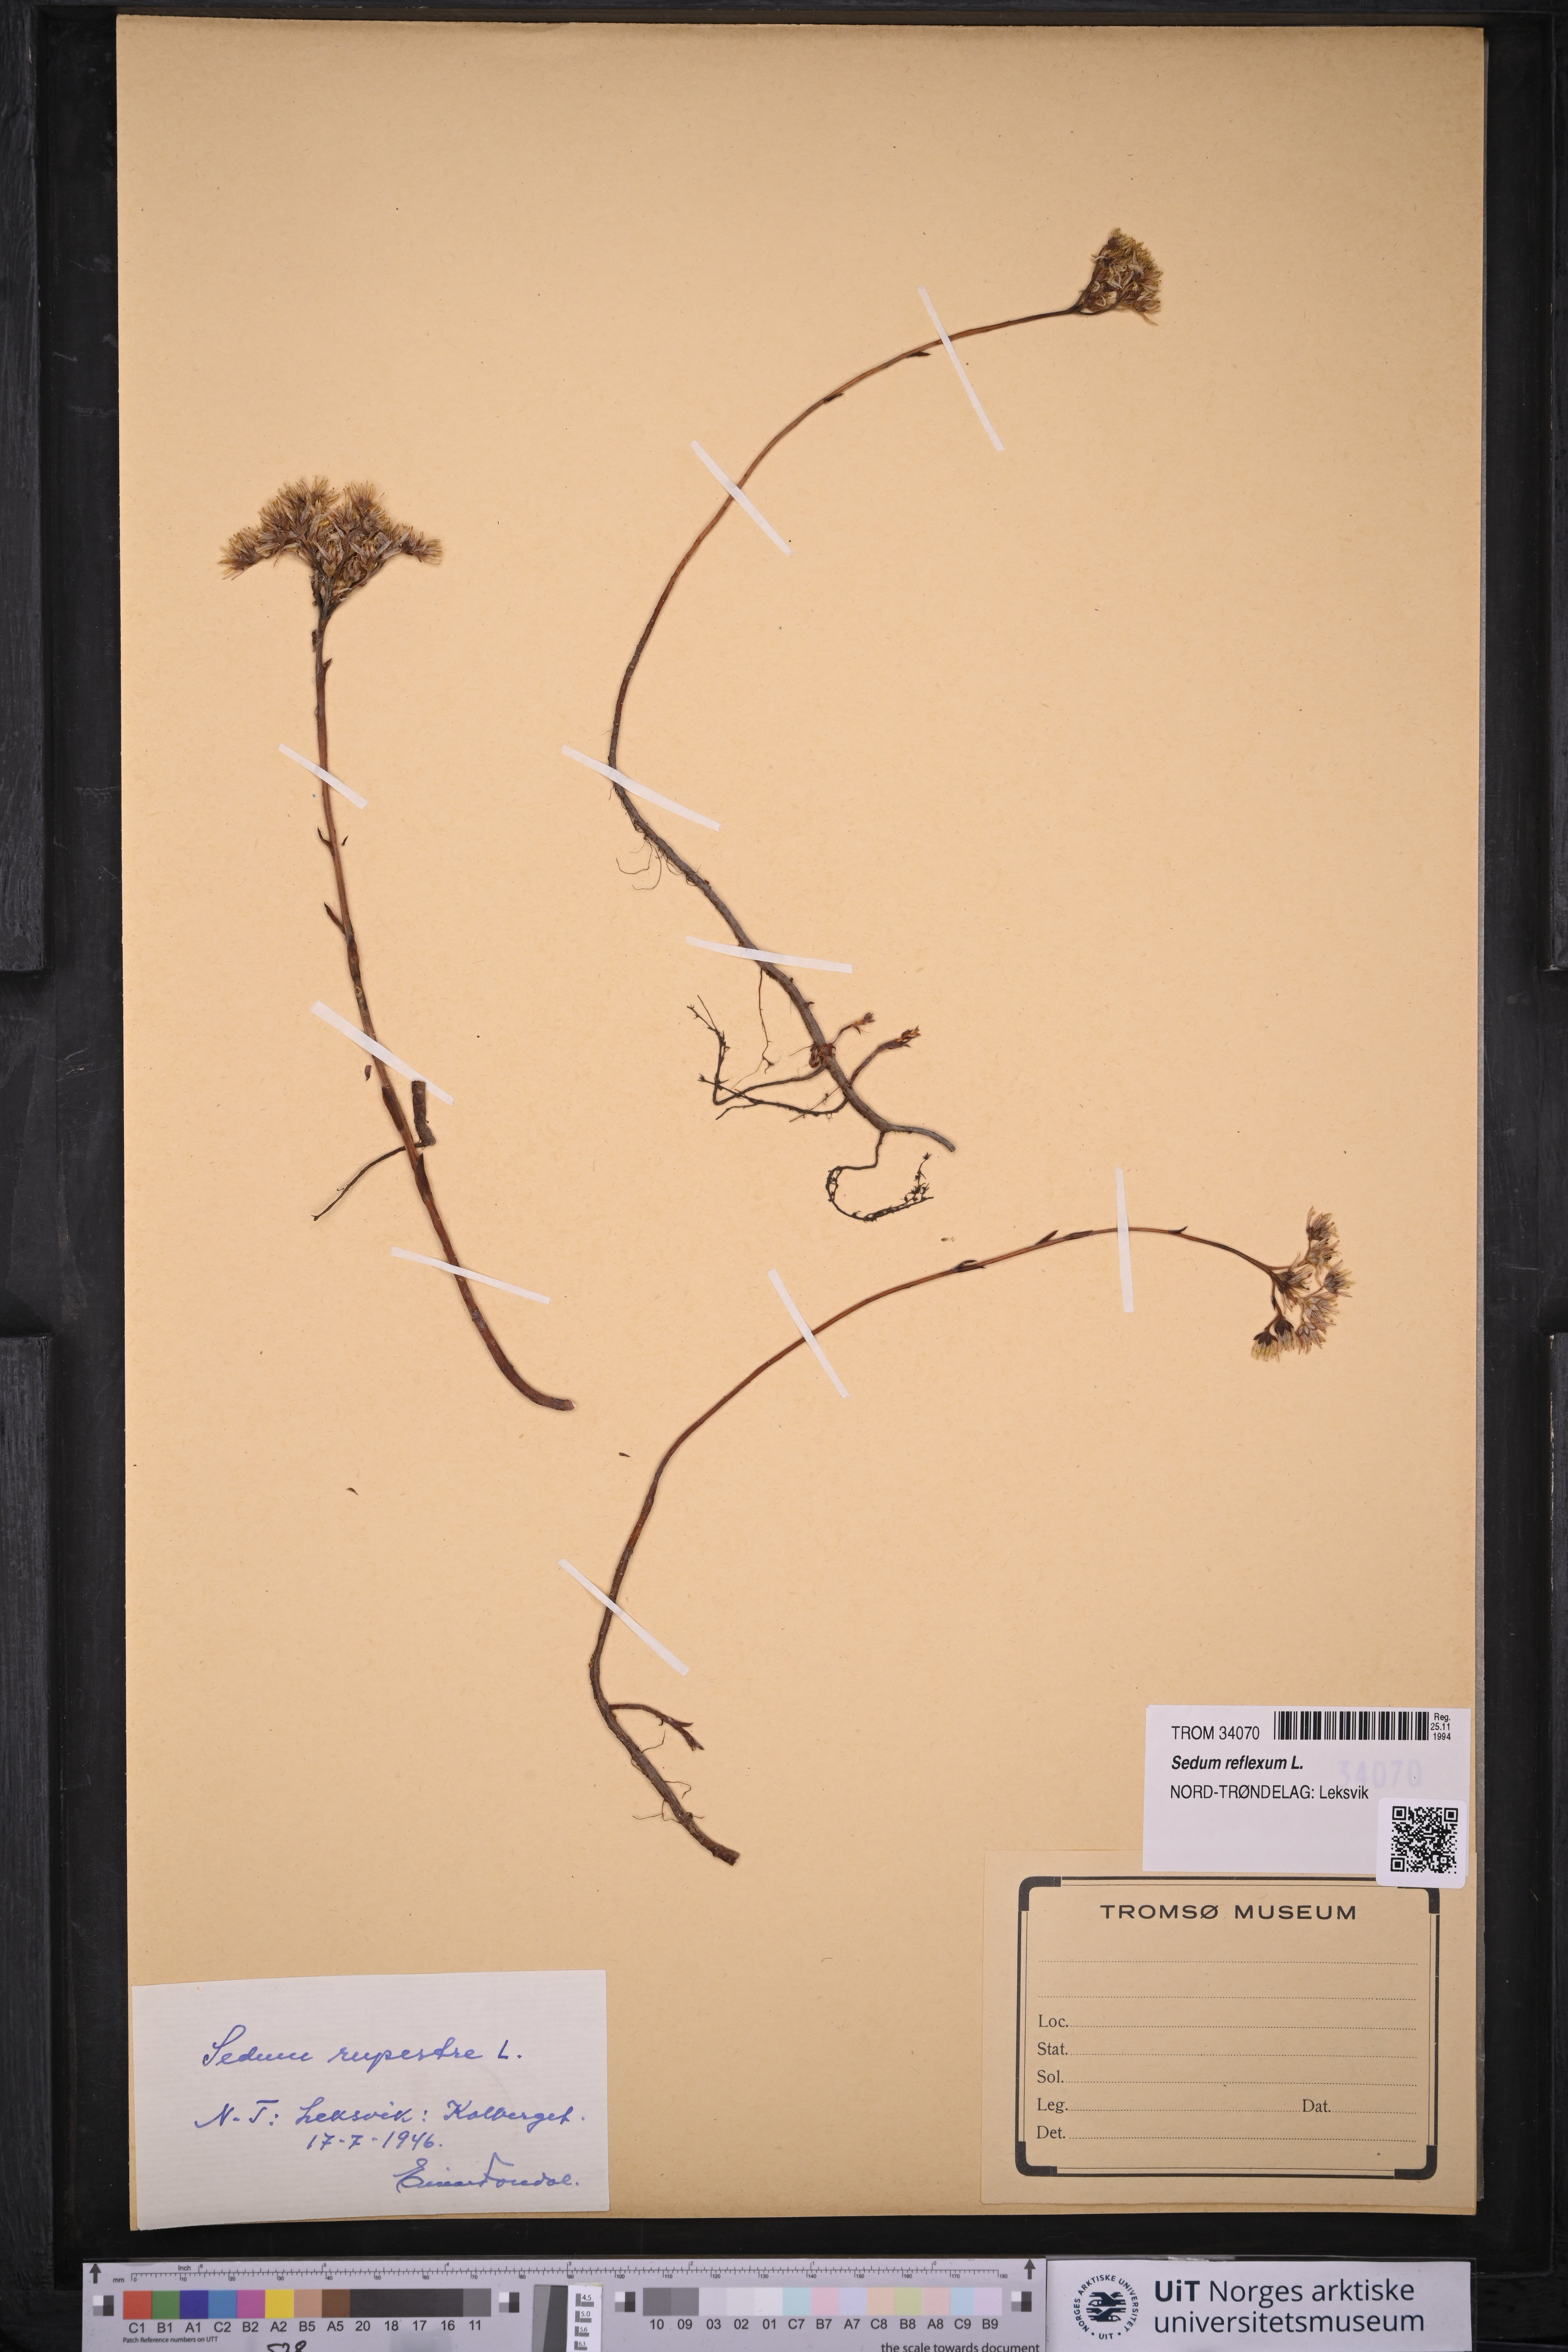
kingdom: Plantae
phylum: Tracheophyta
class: Magnoliopsida
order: Saxifragales
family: Crassulaceae
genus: Petrosedum
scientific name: Petrosedum rupestre
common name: Jenny's stonecrop
